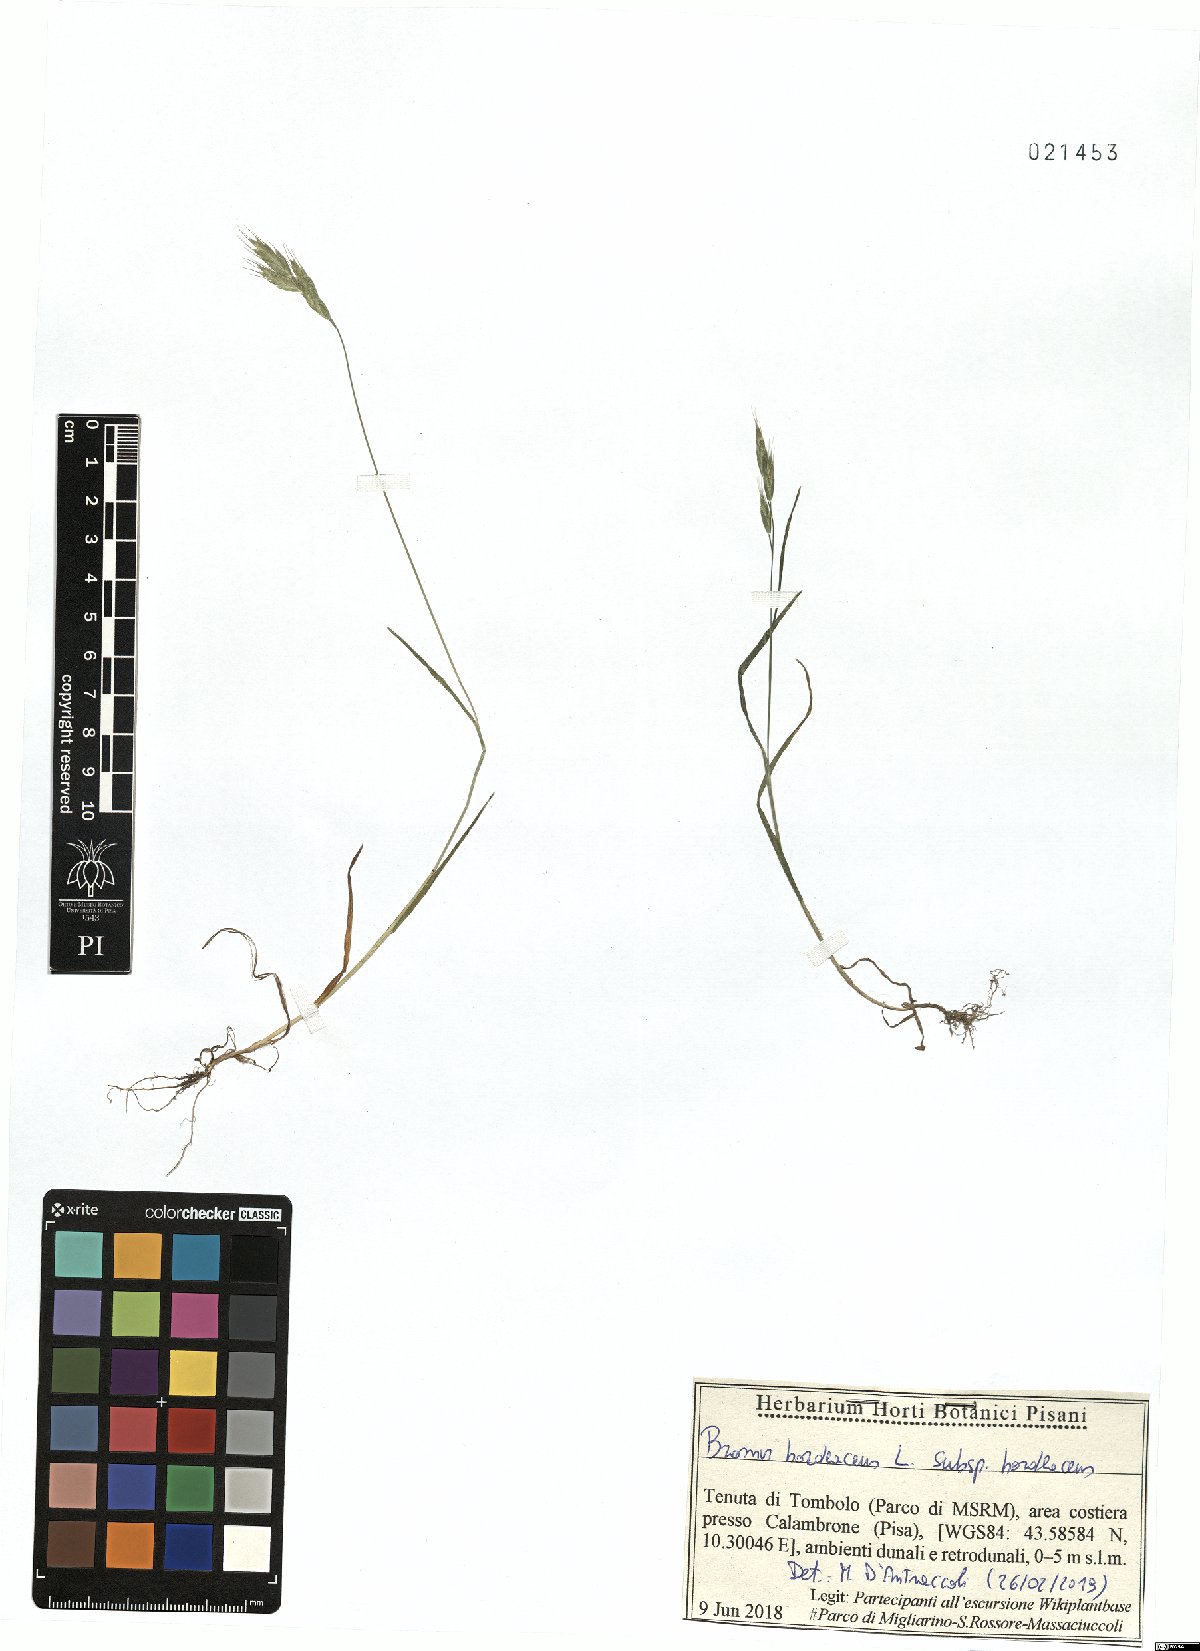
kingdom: Plantae
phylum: Tracheophyta
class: Liliopsida
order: Poales
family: Poaceae
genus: Bromus
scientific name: Bromus hordeaceus
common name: Soft brome
